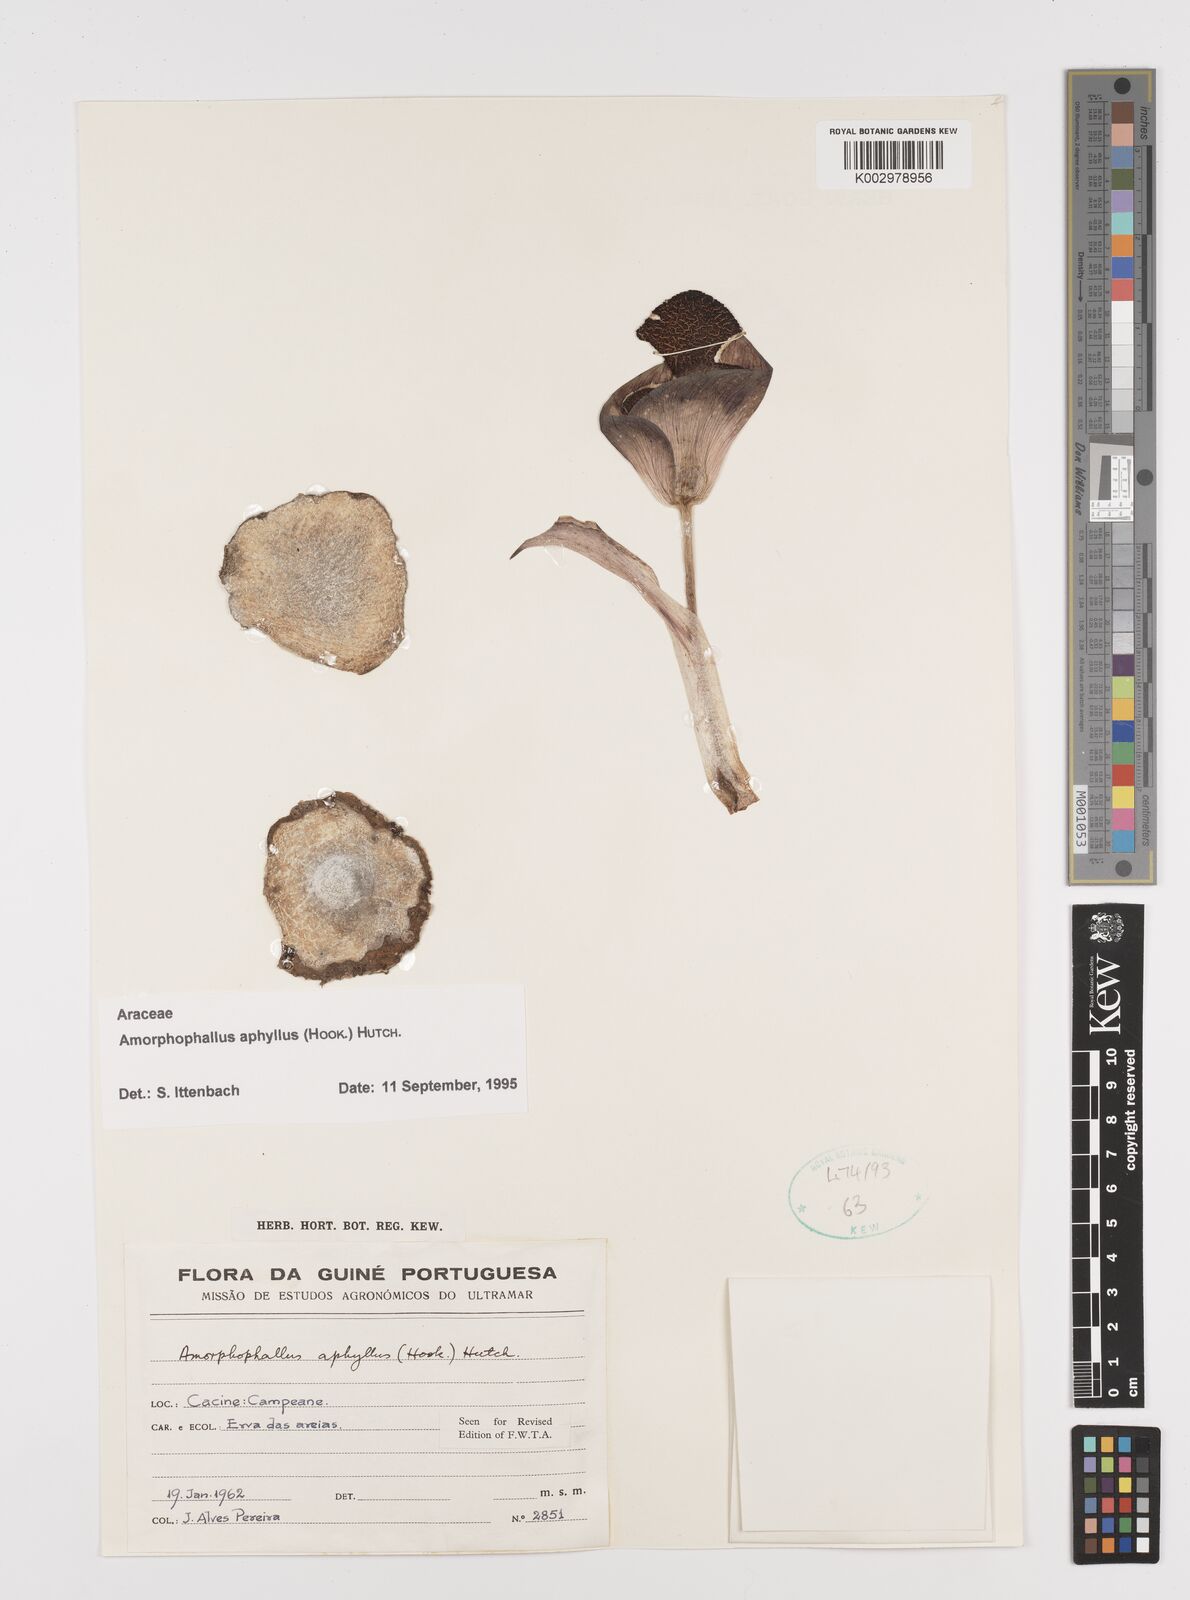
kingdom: Plantae
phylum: Tracheophyta
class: Liliopsida
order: Alismatales
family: Araceae
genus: Amorphophallus
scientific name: Amorphophallus aphyllus
